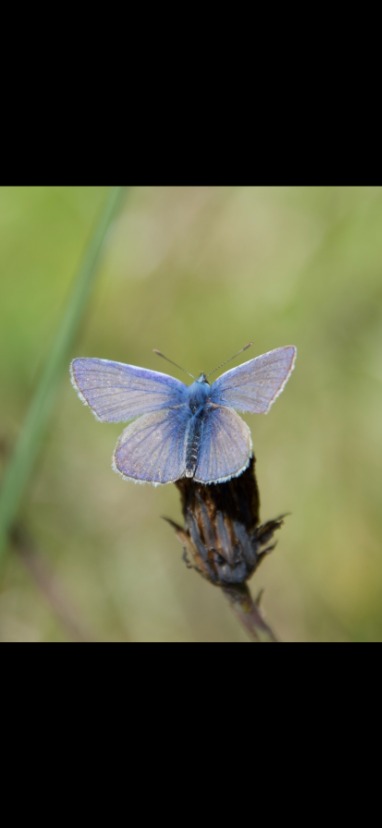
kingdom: Animalia
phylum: Arthropoda
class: Insecta
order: Lepidoptera
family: Lycaenidae
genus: Polyommatus
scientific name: Polyommatus icarus
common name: Almindelig blåfugl
